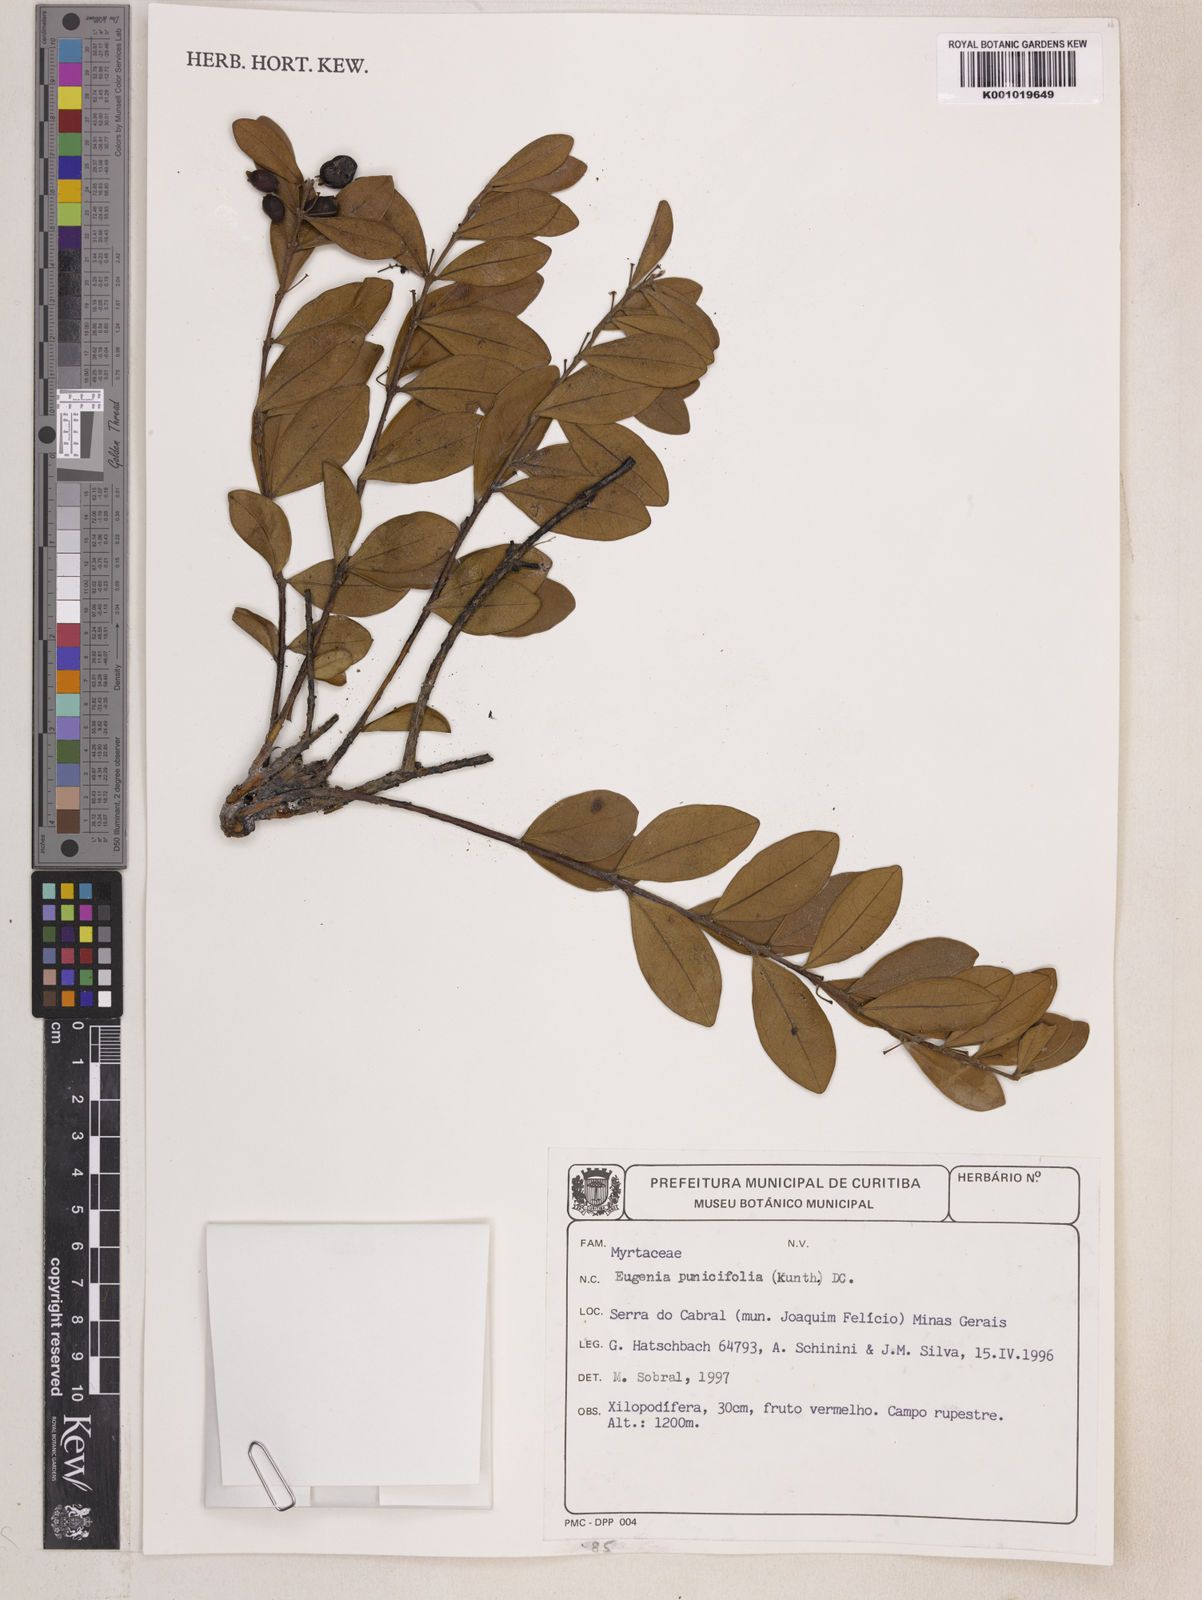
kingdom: Plantae
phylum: Tracheophyta
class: Magnoliopsida
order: Myrtales
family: Myrtaceae
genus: Eugenia
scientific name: Eugenia punicifolia
